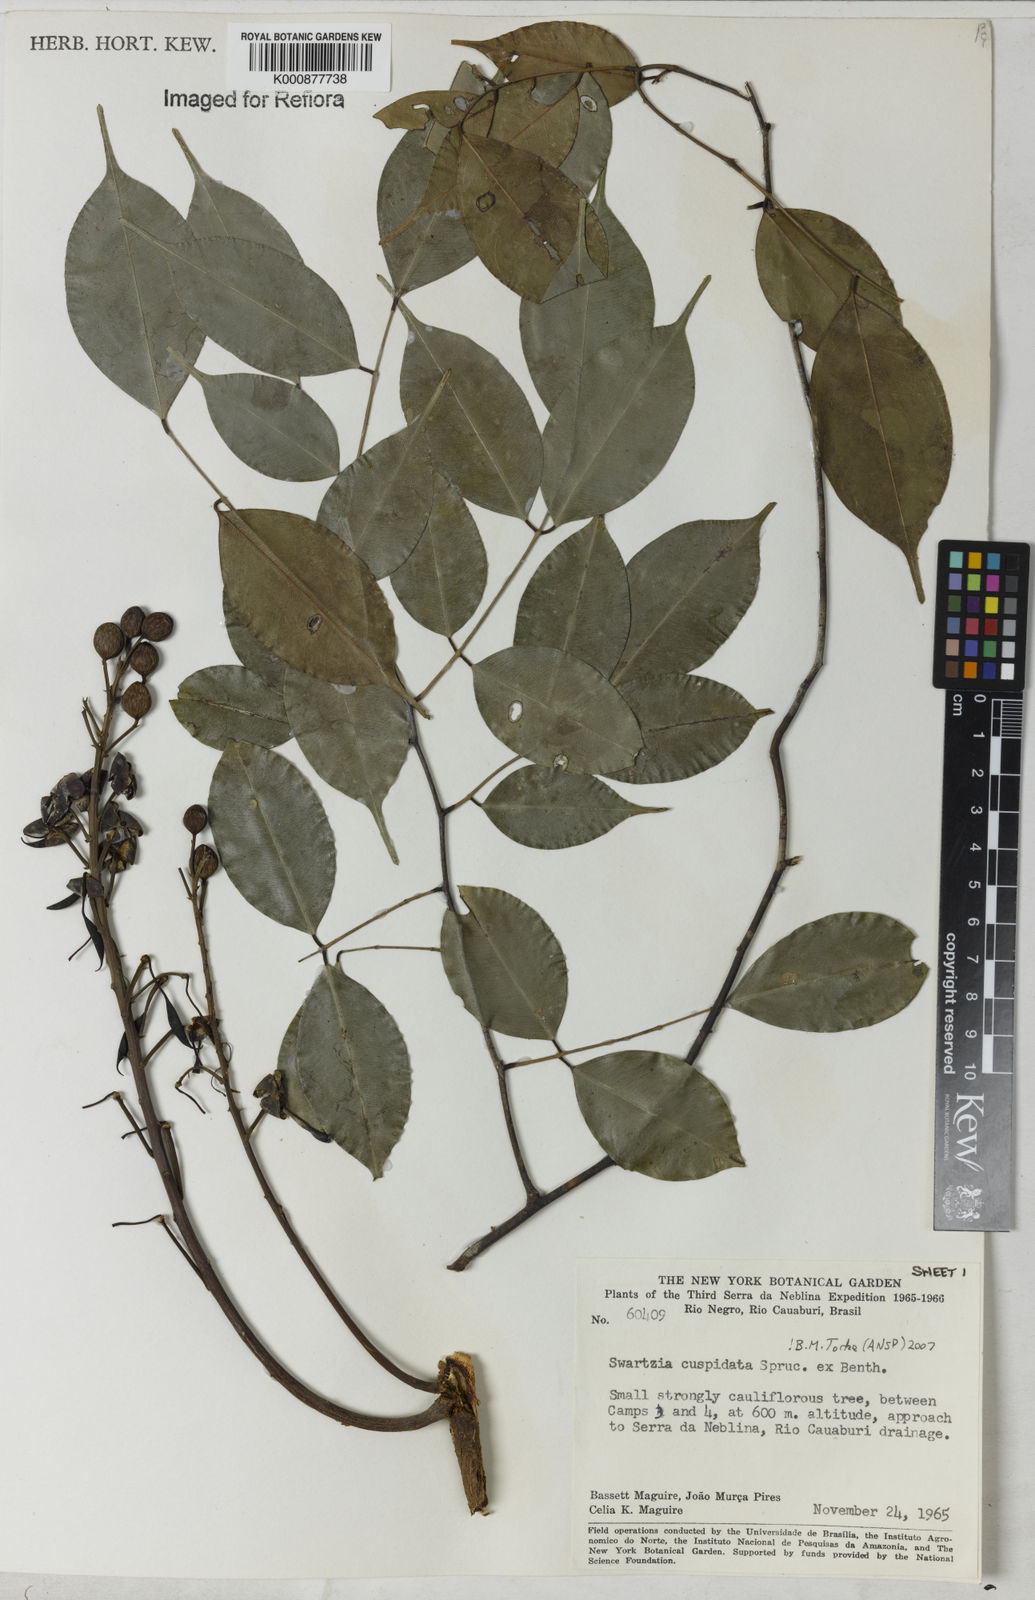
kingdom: Plantae
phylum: Tracheophyta
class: Magnoliopsida
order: Fabales
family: Fabaceae
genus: Swartzia
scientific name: Swartzia cuspidata
